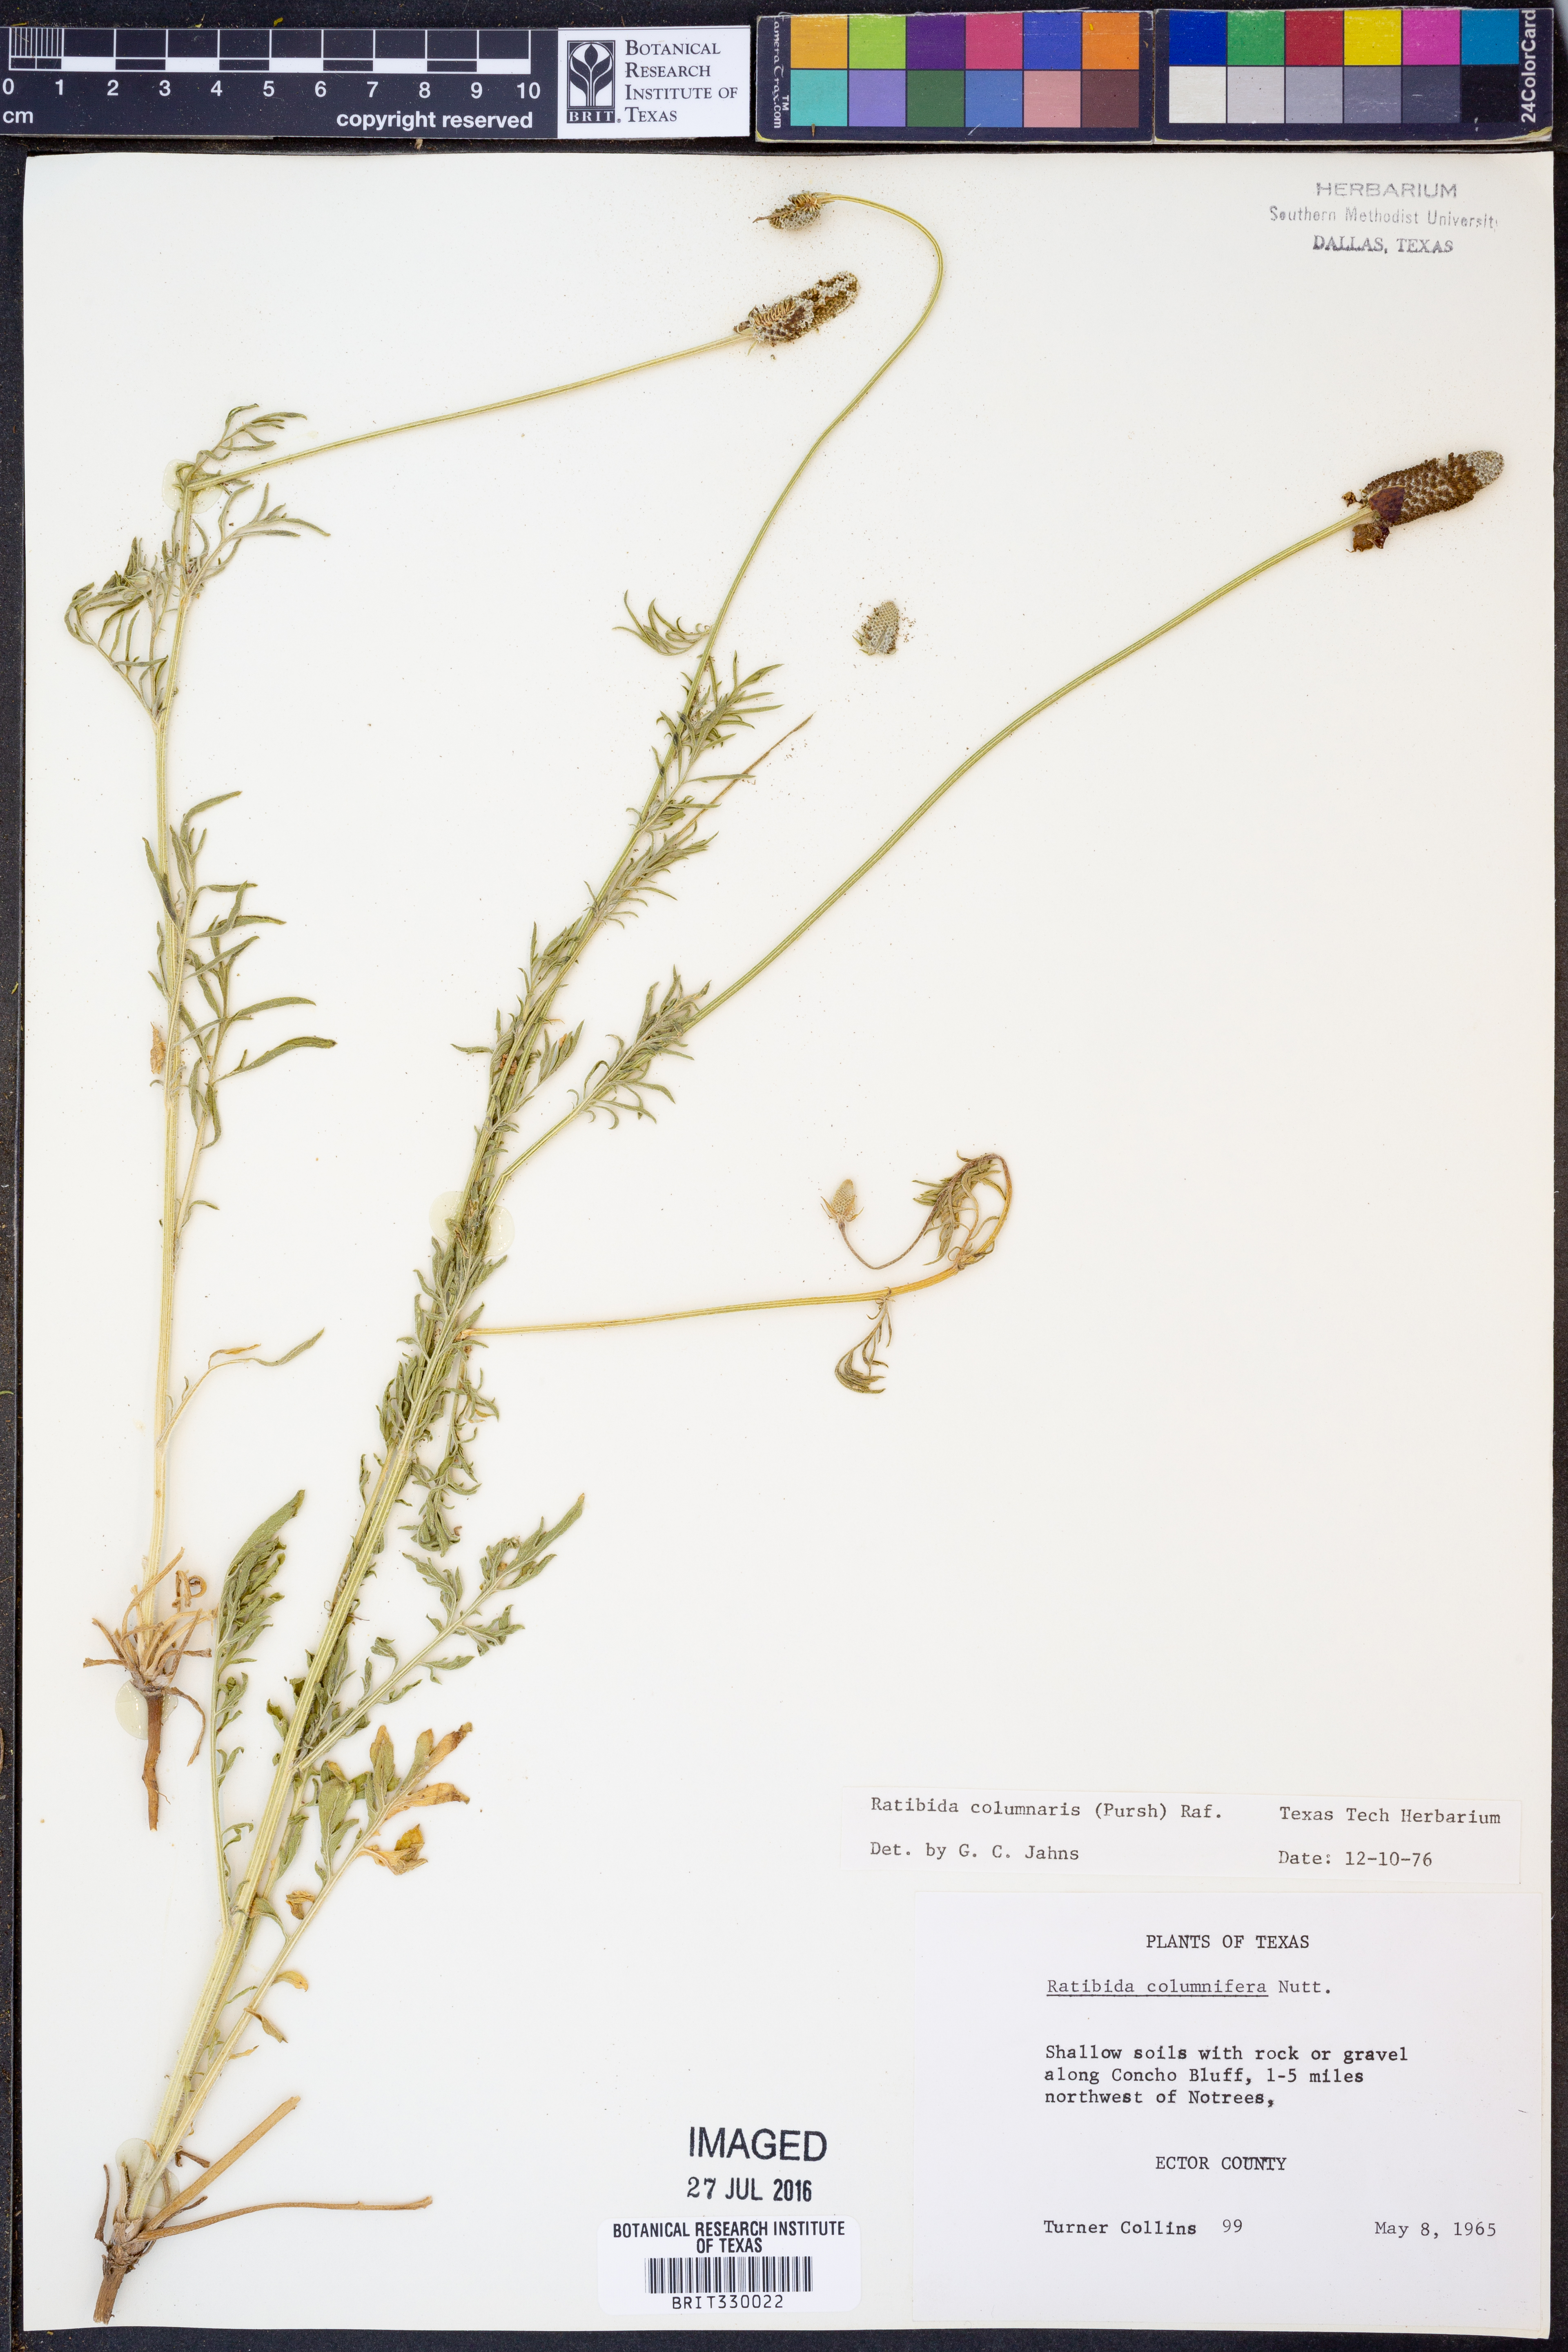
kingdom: Plantae
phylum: Tracheophyta
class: Magnoliopsida
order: Asterales
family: Asteraceae
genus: Ratibida
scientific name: Ratibida columnifera
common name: Prairie coneflower
